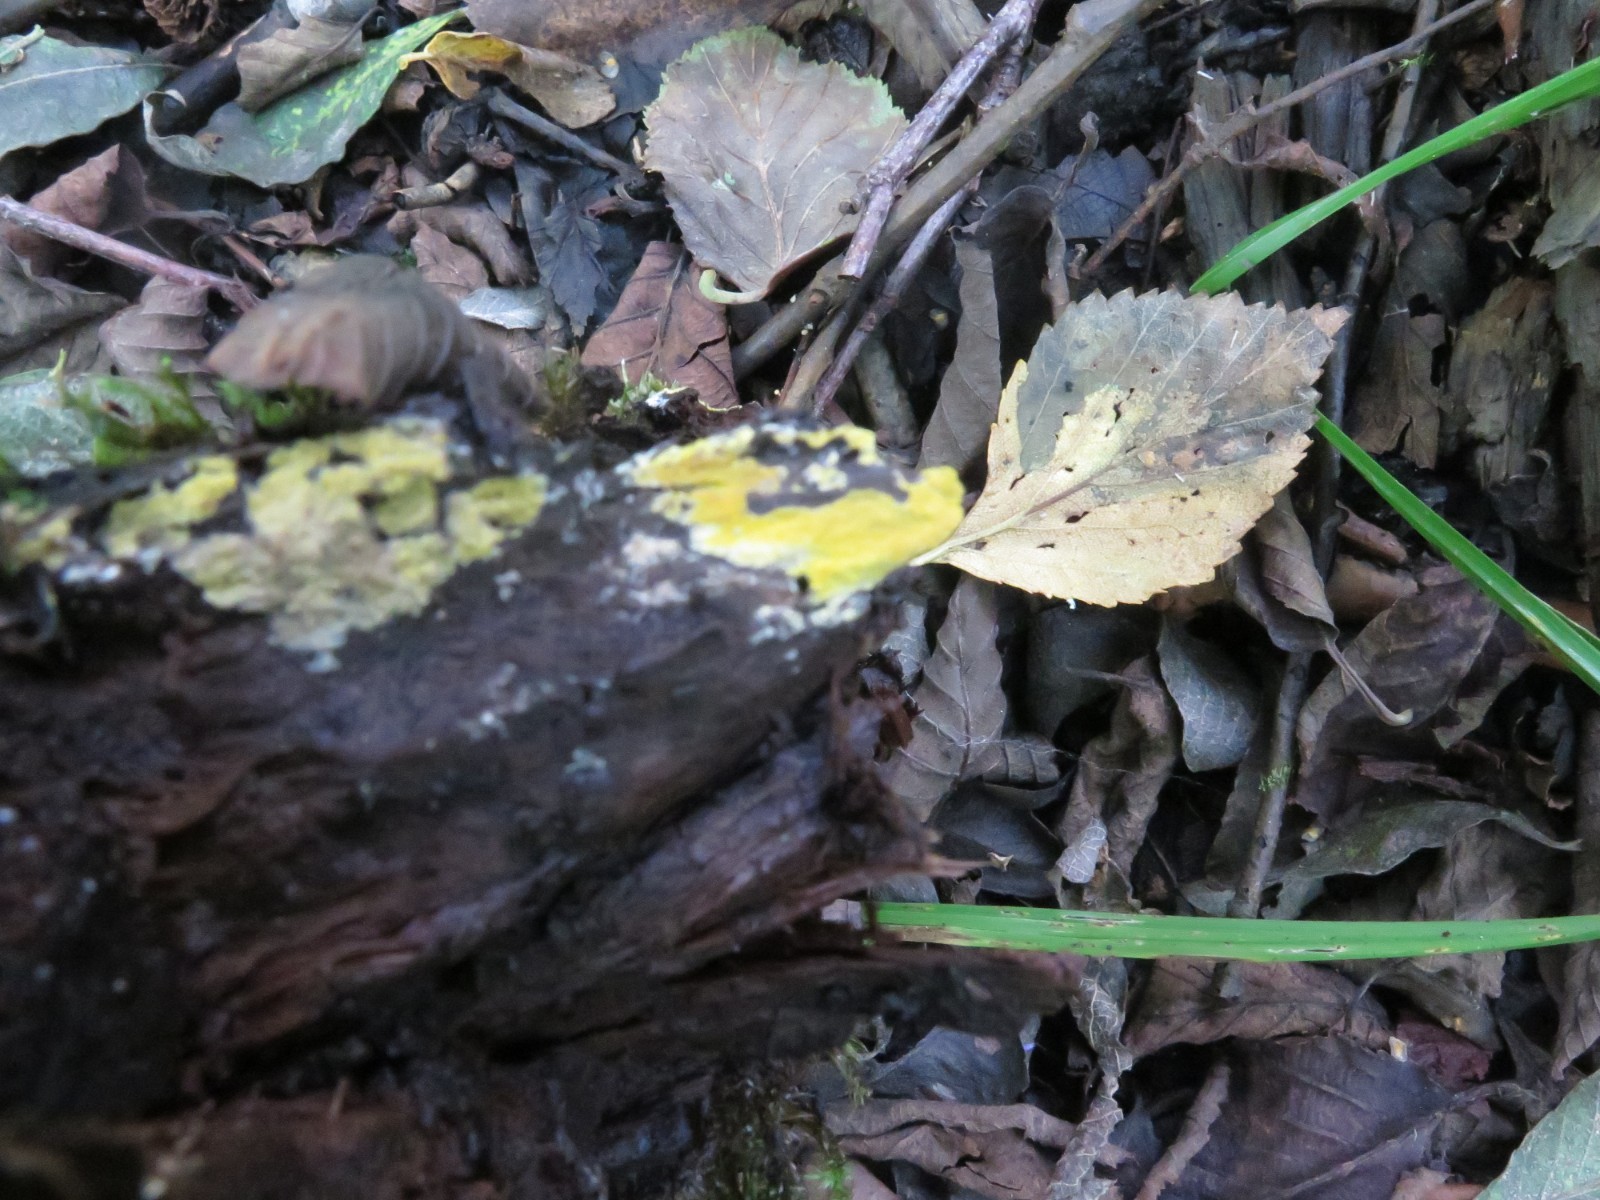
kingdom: Fungi
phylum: Basidiomycota
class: Agaricomycetes
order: Polyporales
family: Meruliaceae
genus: Phlebiodontia
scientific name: Phlebiodontia subochracea
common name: svovl-åresvamp
